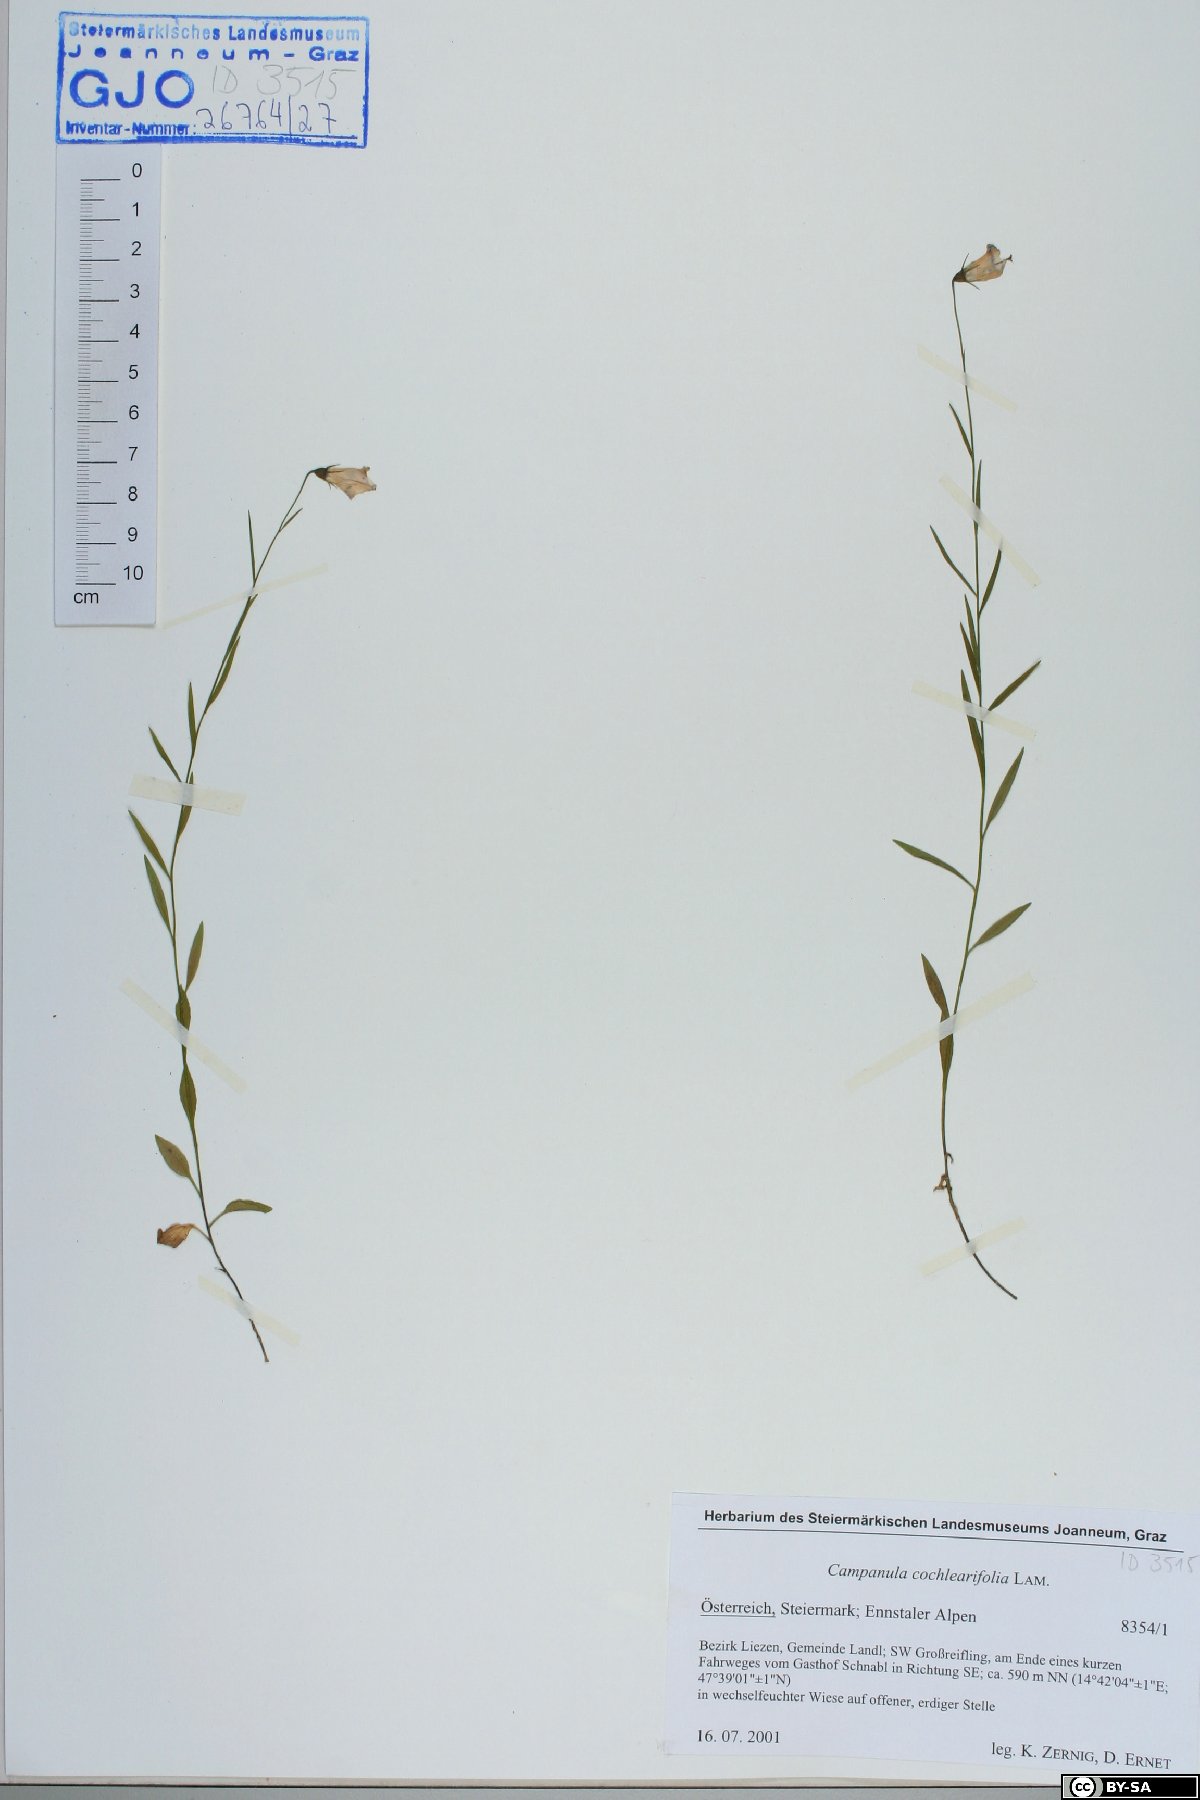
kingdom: Plantae
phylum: Tracheophyta
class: Magnoliopsida
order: Asterales
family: Campanulaceae
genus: Campanula
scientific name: Campanula cochleariifolia
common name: Fairies'-thimbles
